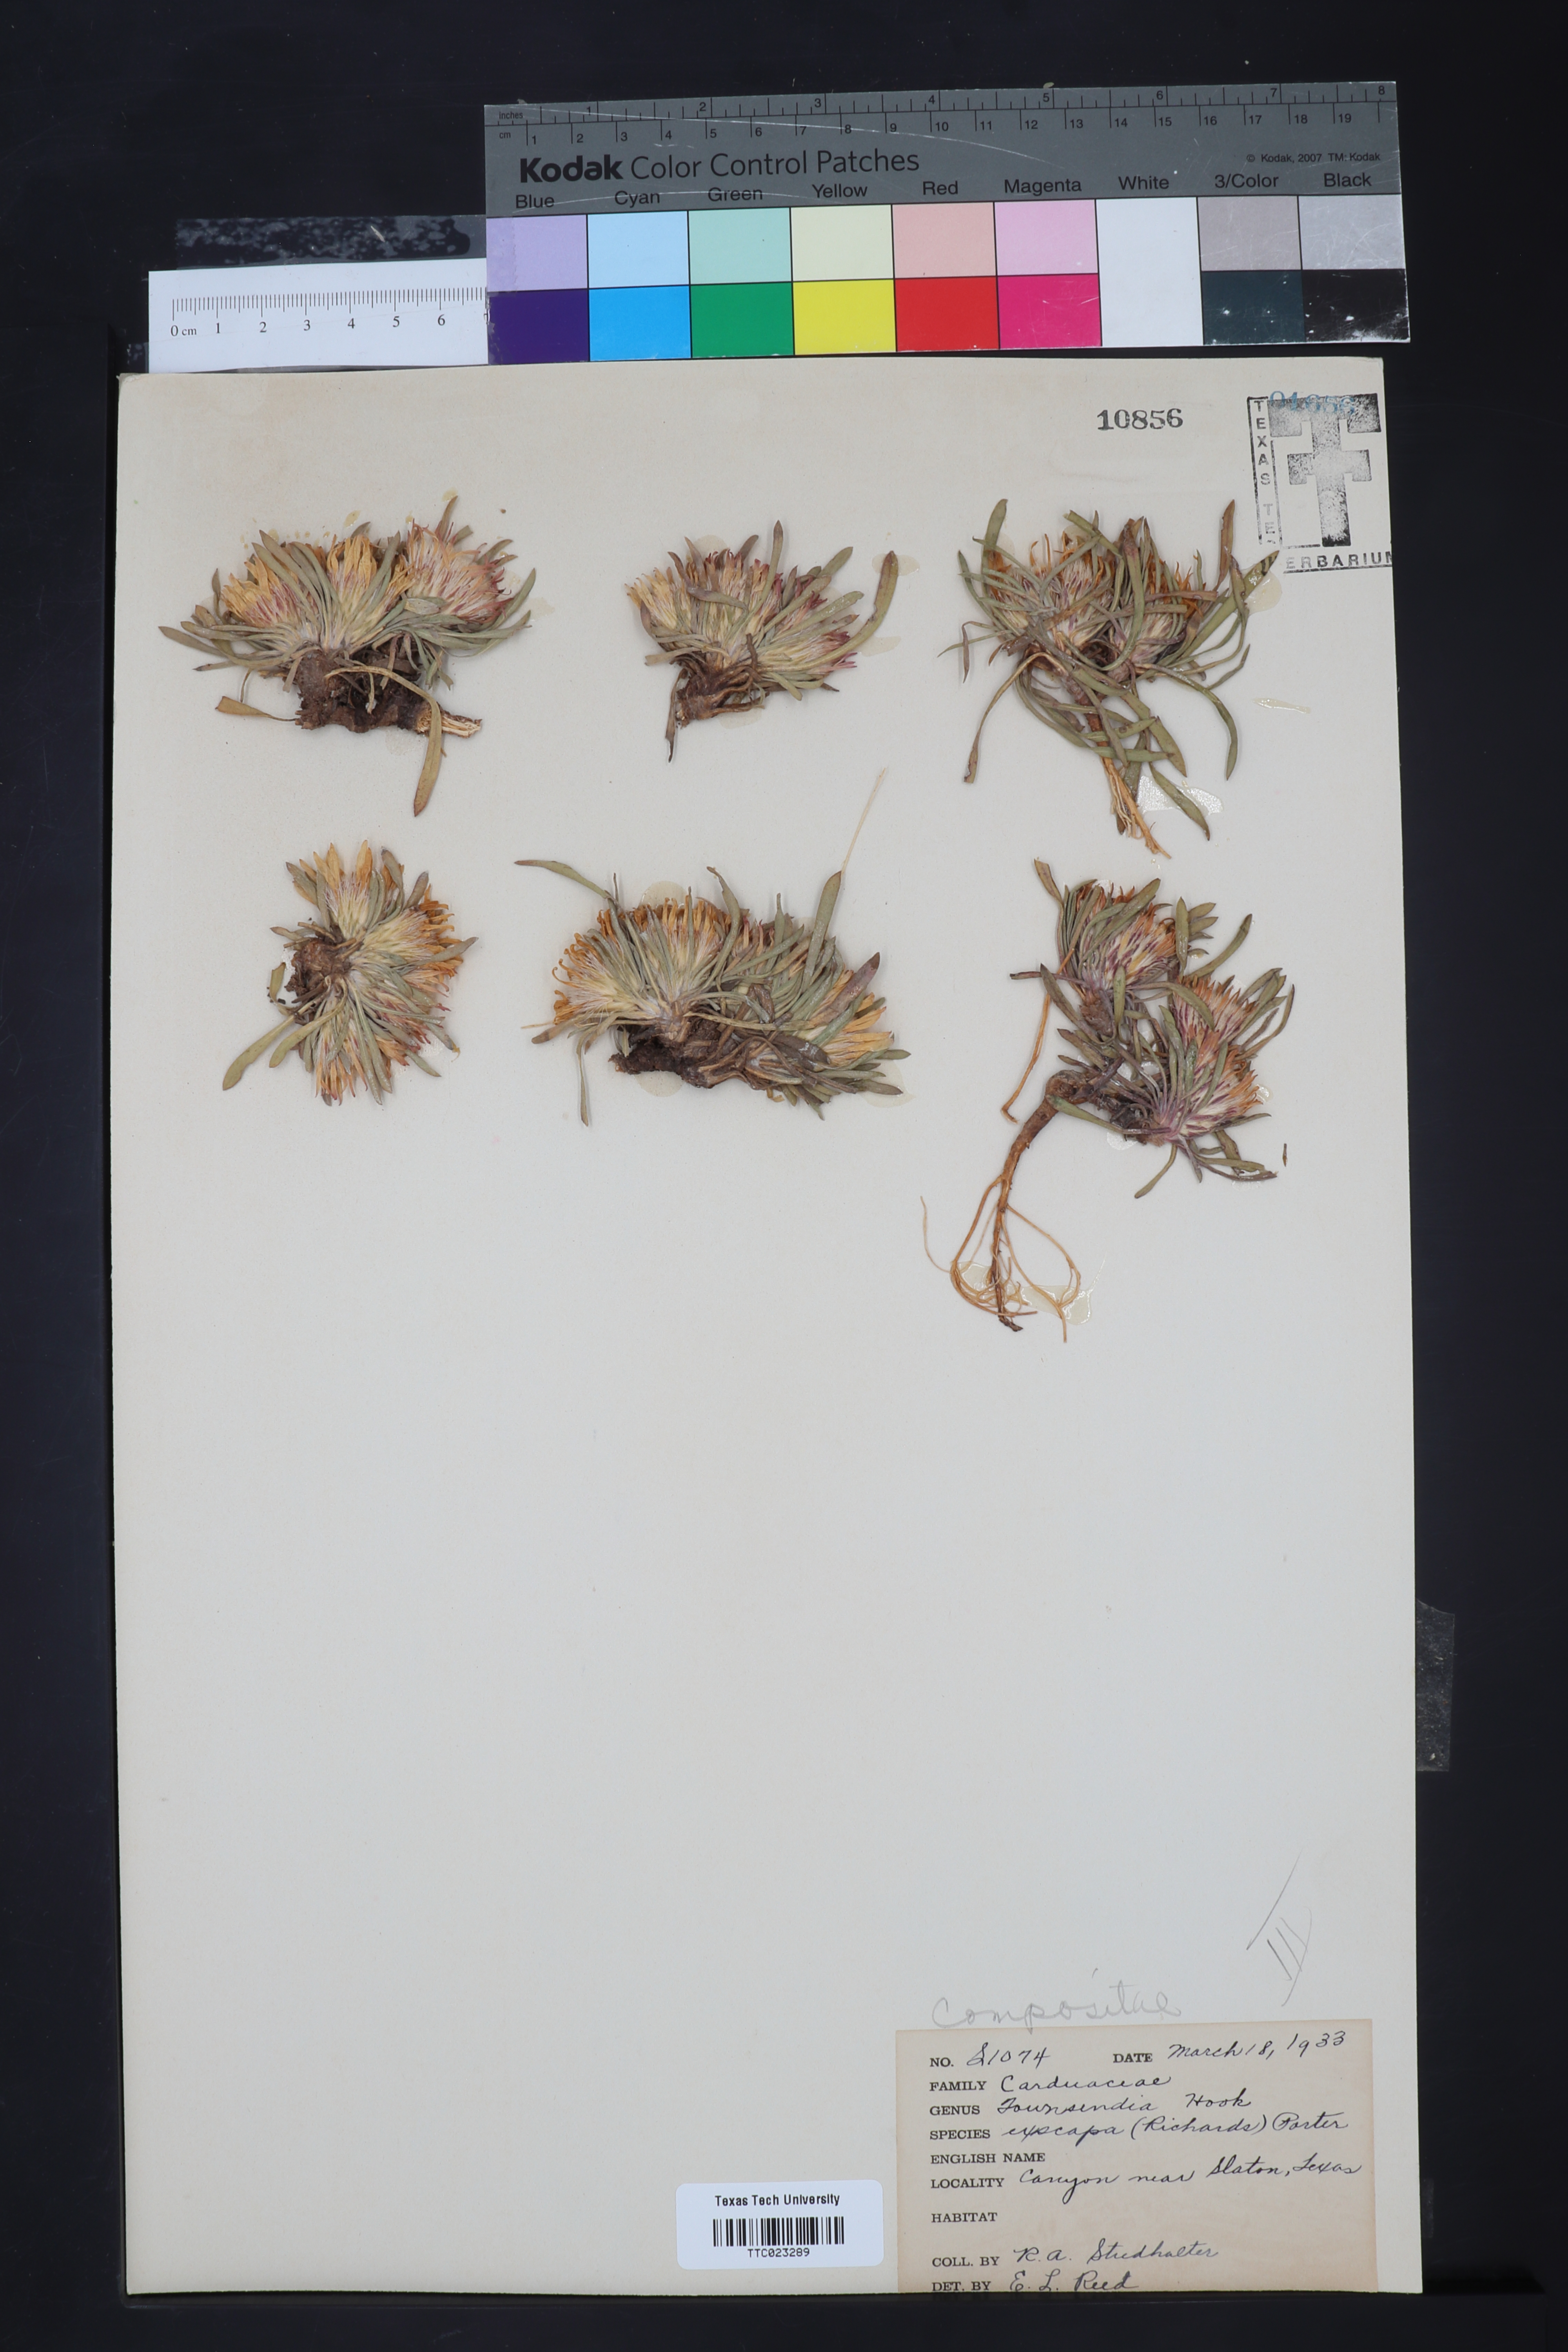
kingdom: Plantae
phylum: Tracheophyta
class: Magnoliopsida
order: Asterales
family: Asteraceae
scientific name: Asteraceae
